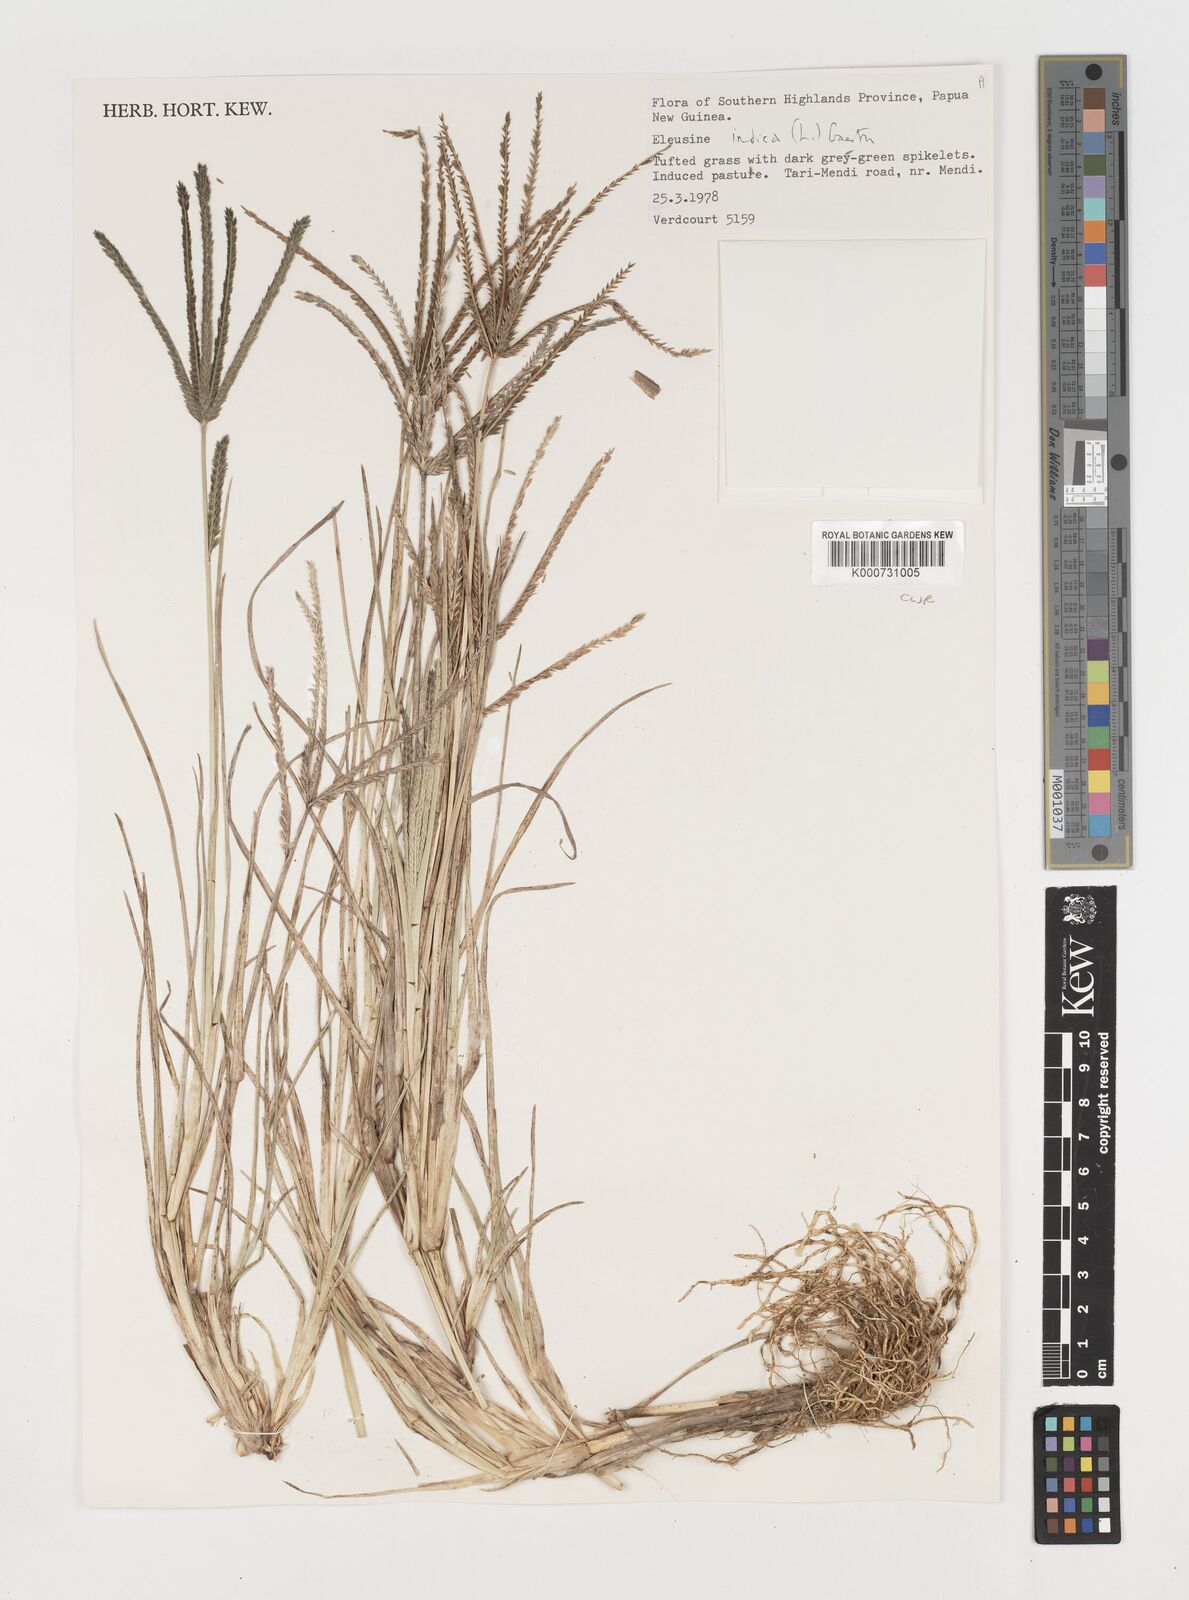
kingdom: Plantae
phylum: Tracheophyta
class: Liliopsida
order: Poales
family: Poaceae
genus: Eleusine
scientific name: Eleusine indica
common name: Yard-grass
